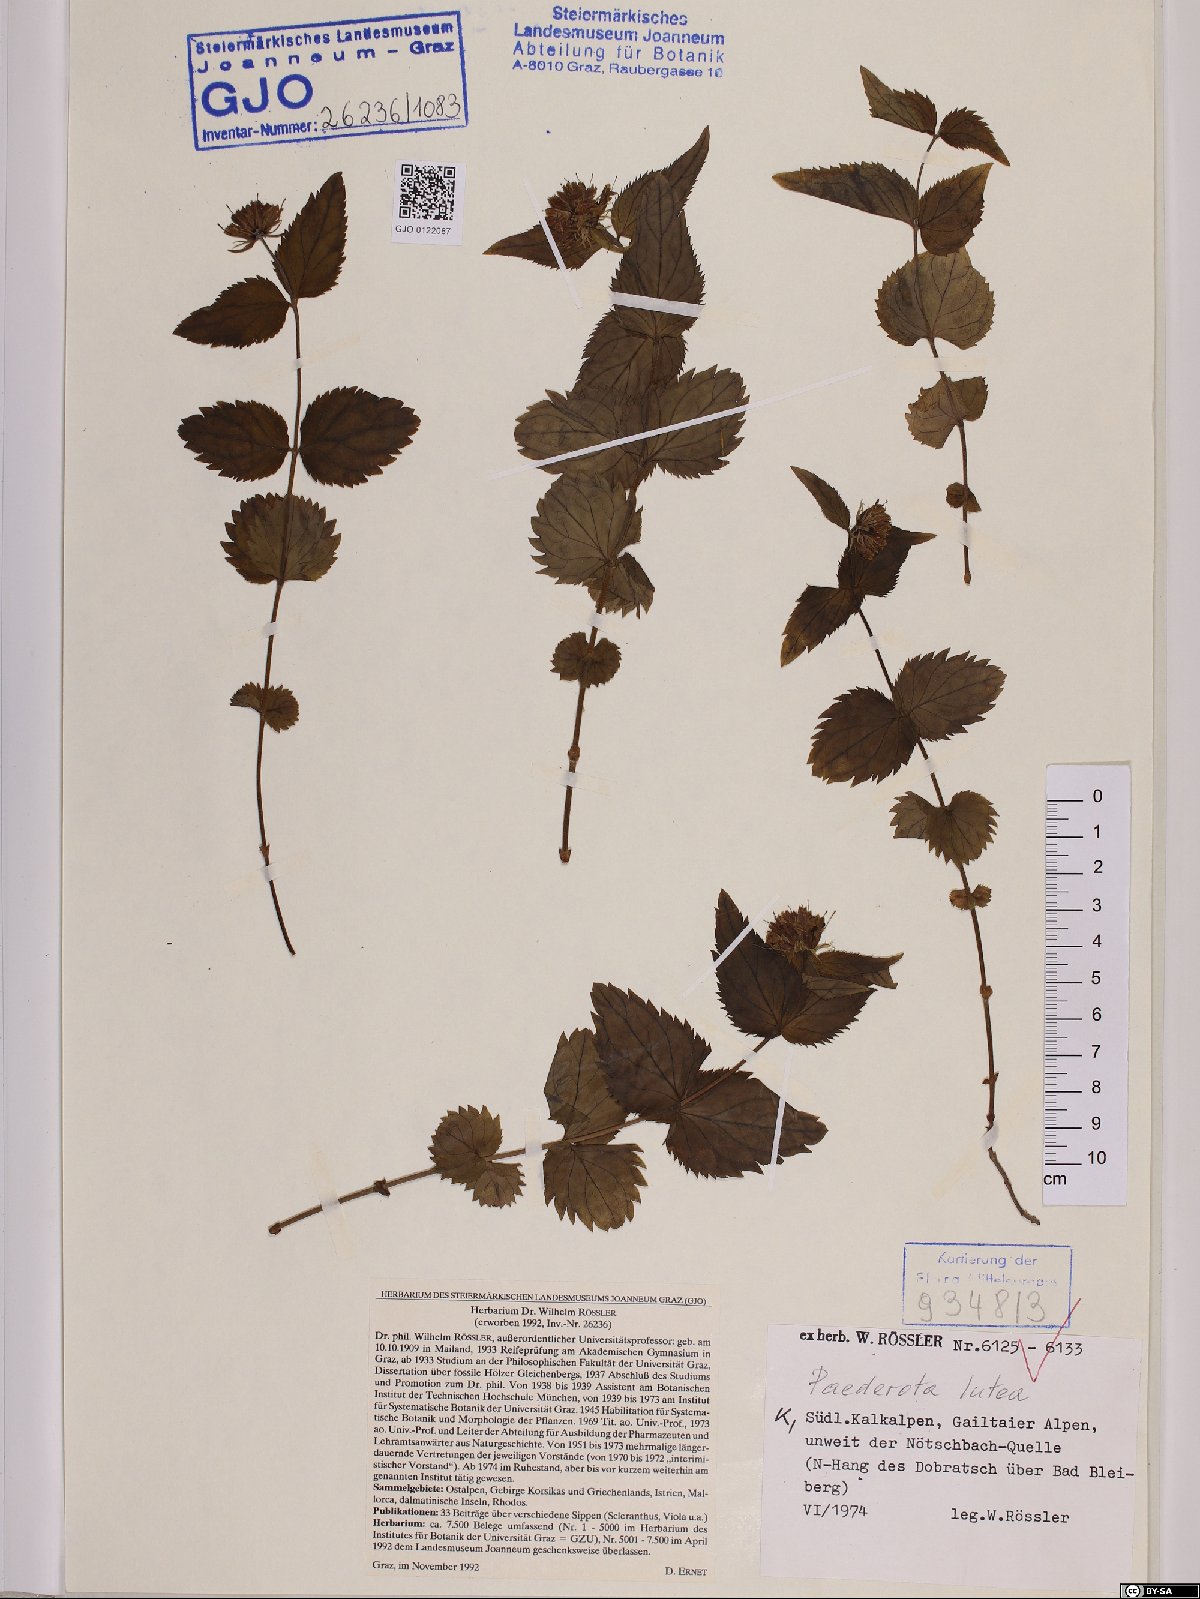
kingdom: Plantae
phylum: Tracheophyta
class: Magnoliopsida
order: Lamiales
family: Plantaginaceae
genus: Paederota
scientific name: Paederota lutea
